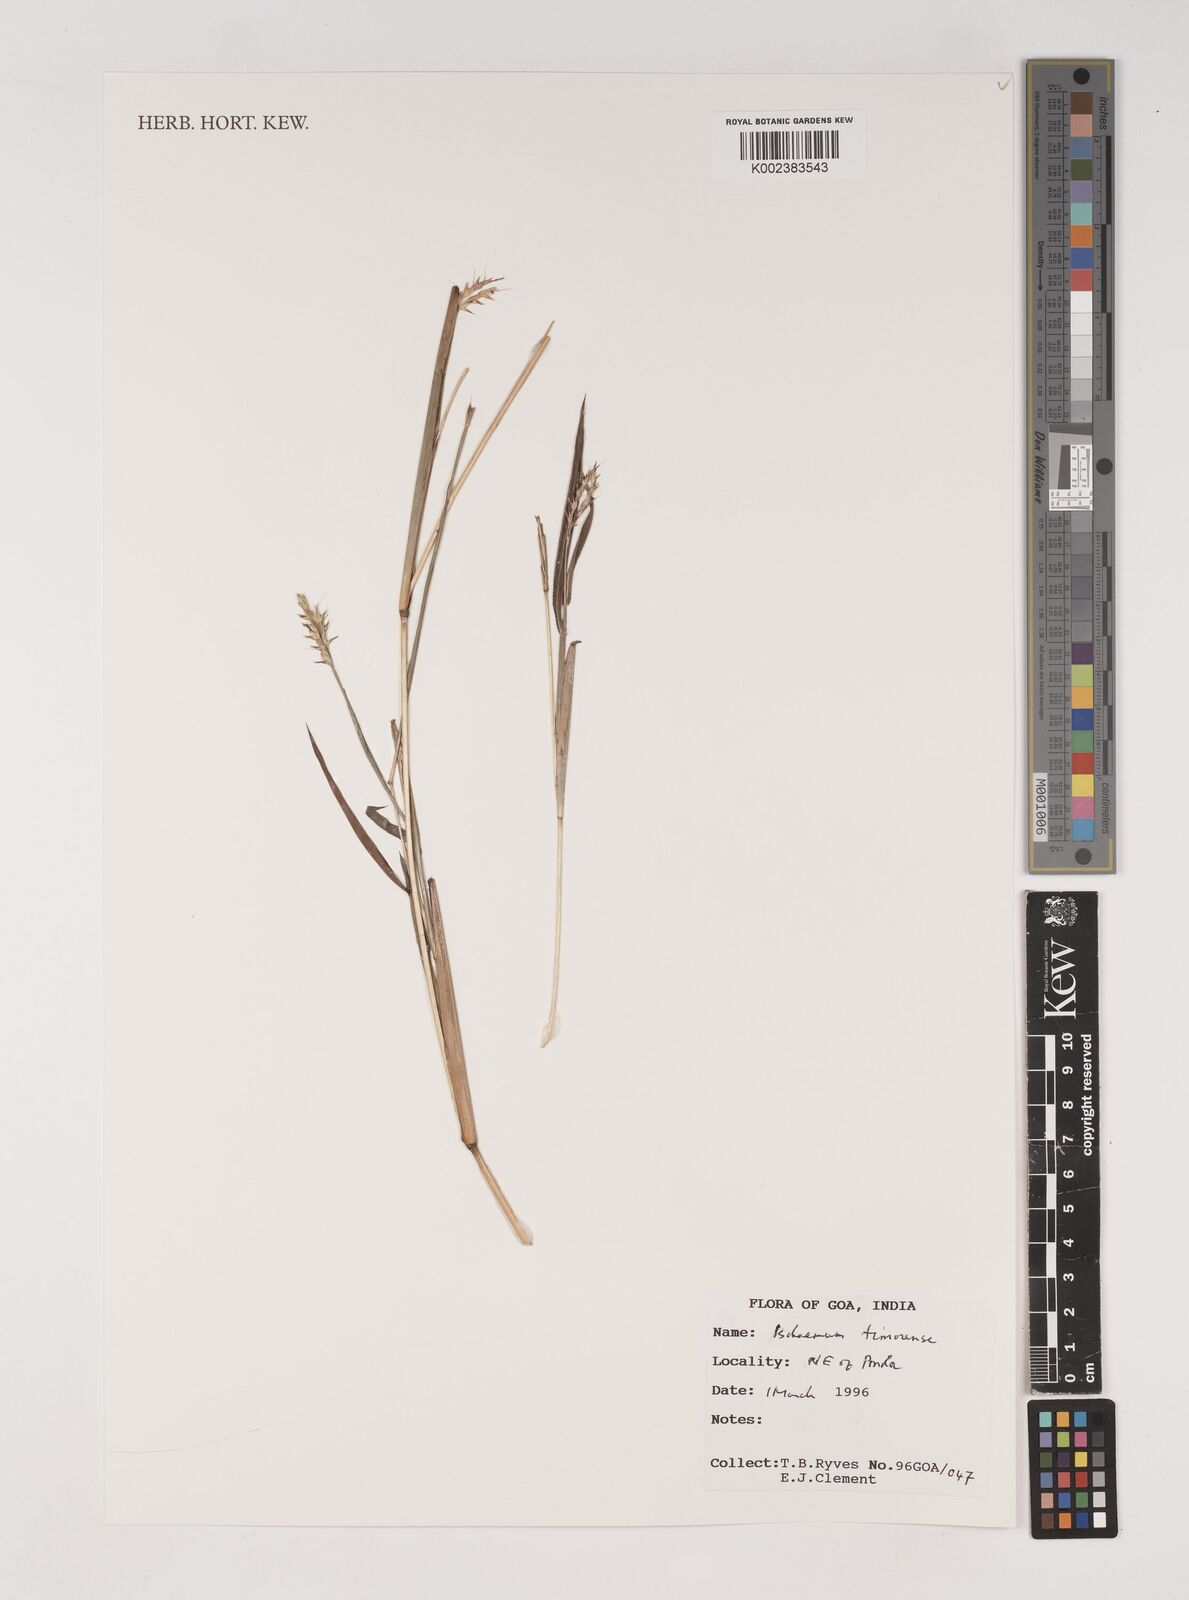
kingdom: Plantae
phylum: Tracheophyta
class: Liliopsida
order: Poales
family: Poaceae
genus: Ischaemum
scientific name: Ischaemum timorense
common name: Stalkleaf murainagrass
